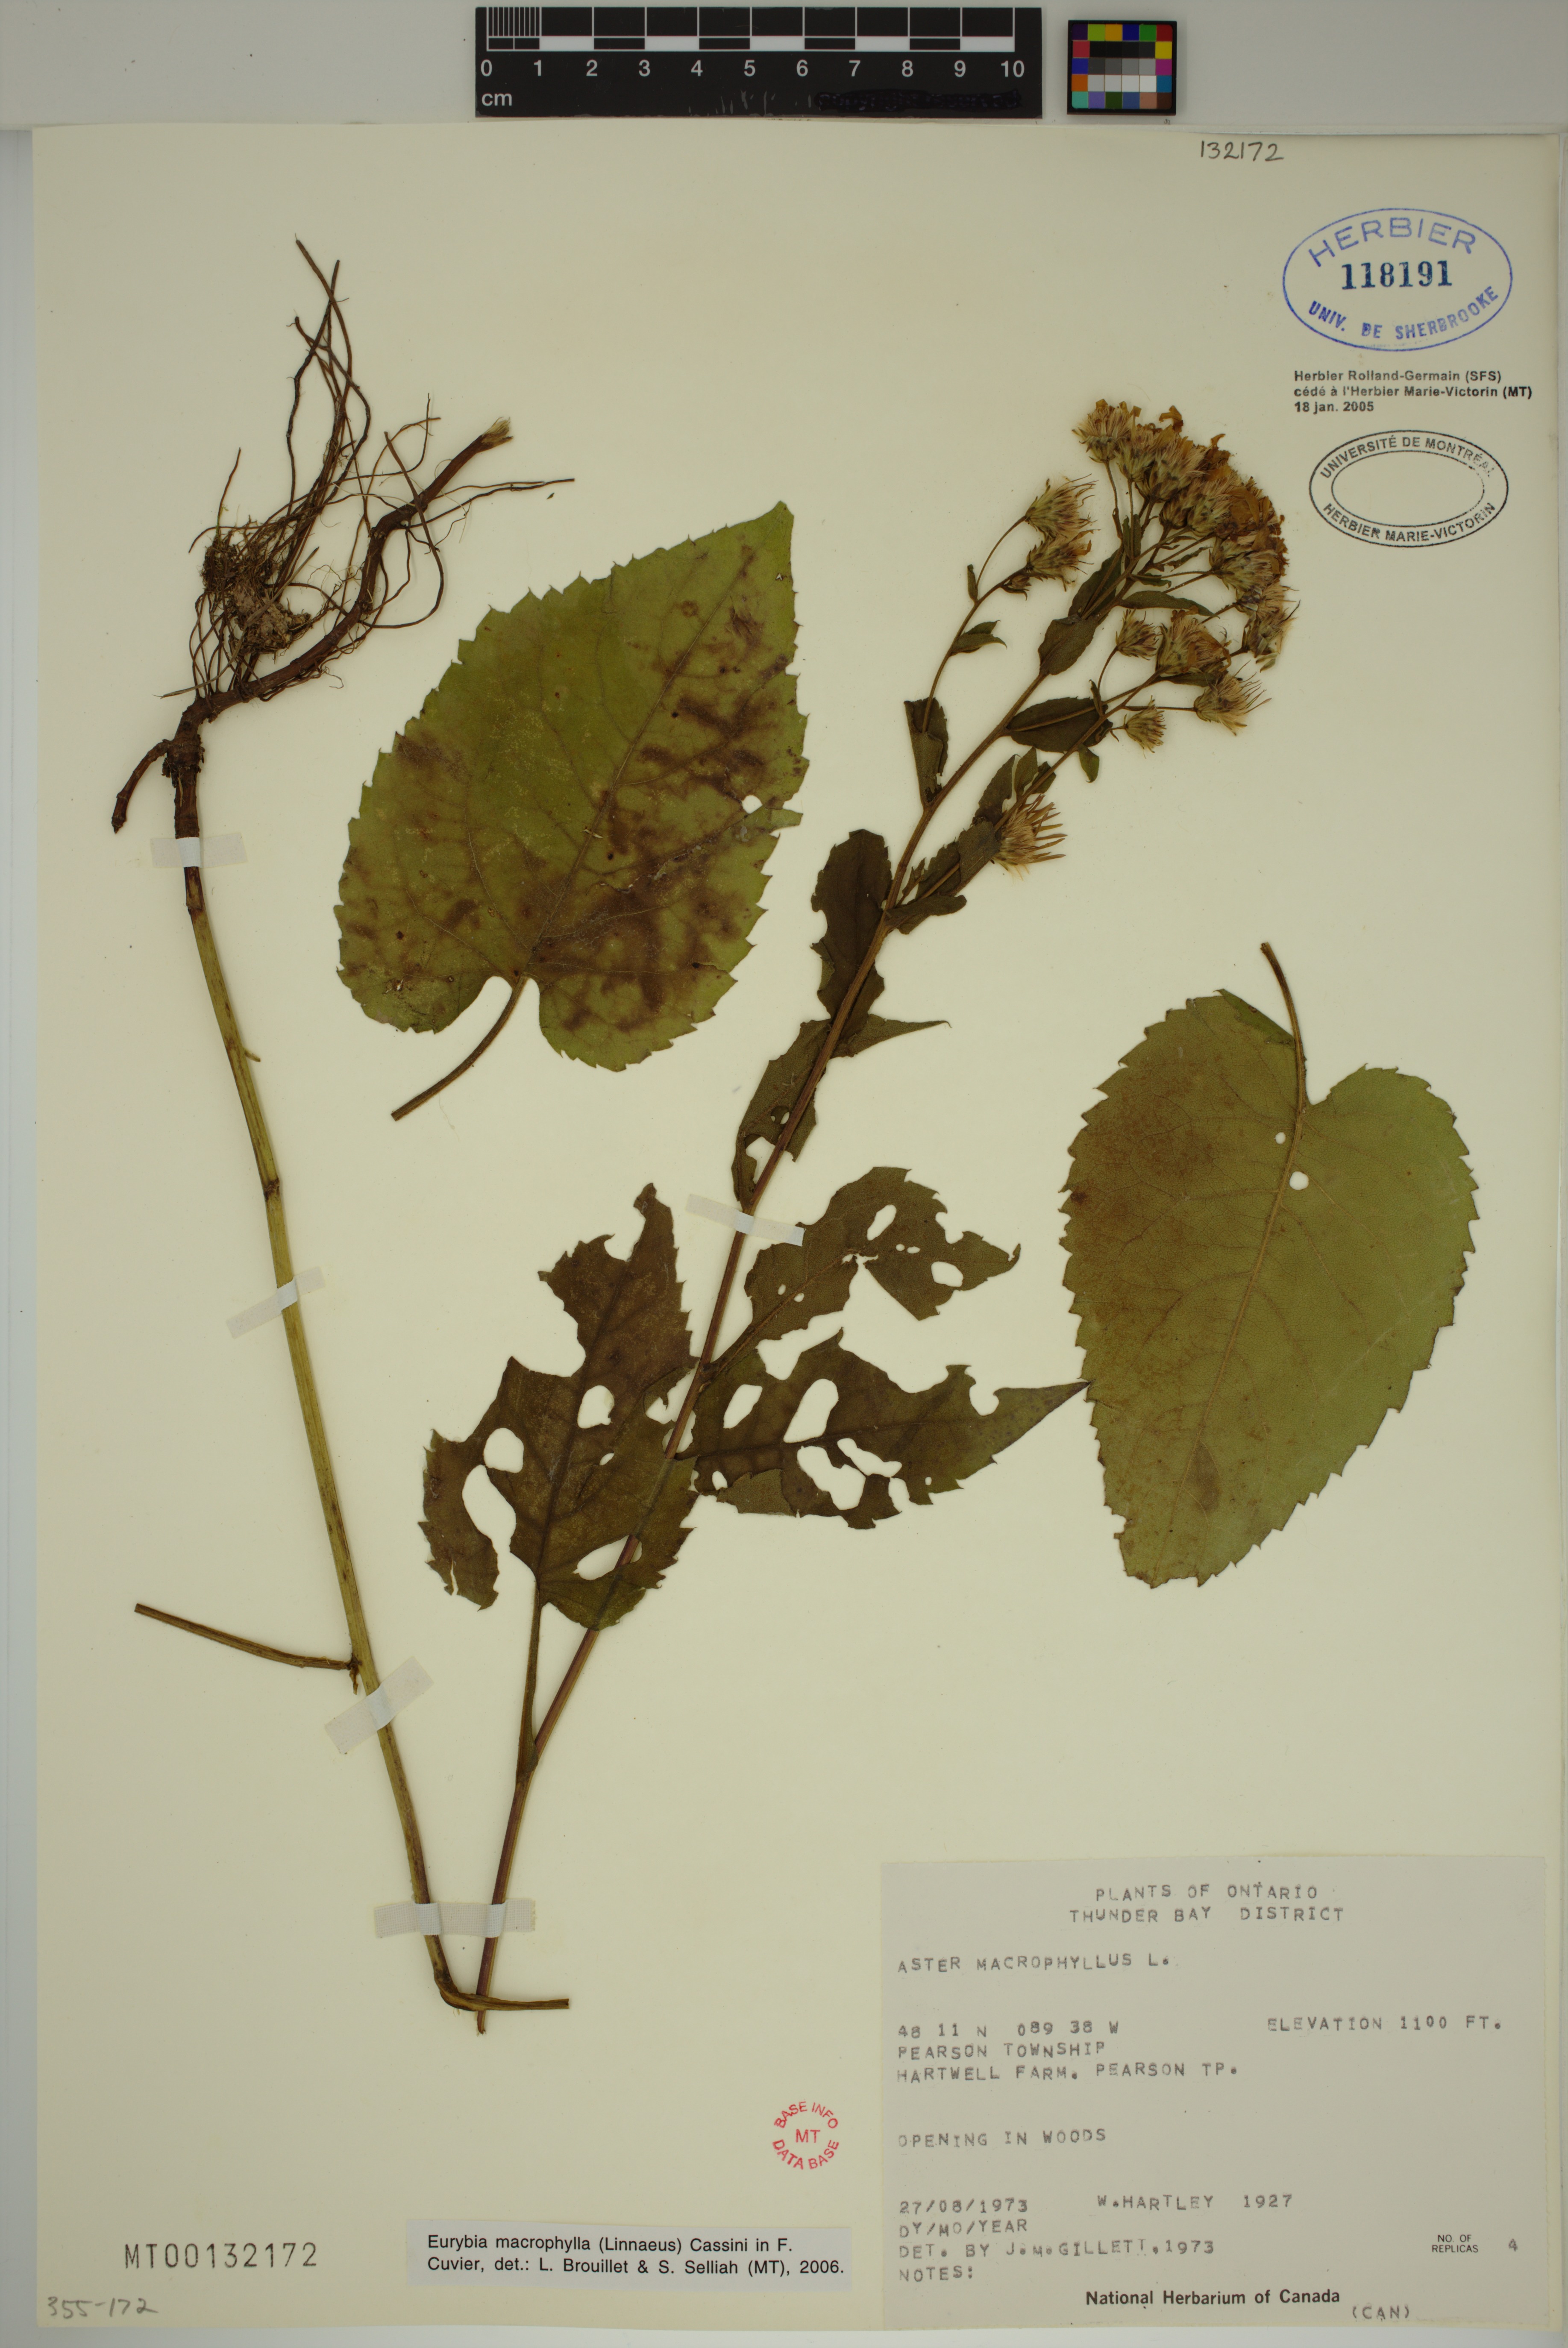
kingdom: Plantae
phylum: Tracheophyta
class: Magnoliopsida
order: Asterales
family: Asteraceae
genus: Eurybia
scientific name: Eurybia macrophylla
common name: Big-leaved aster
